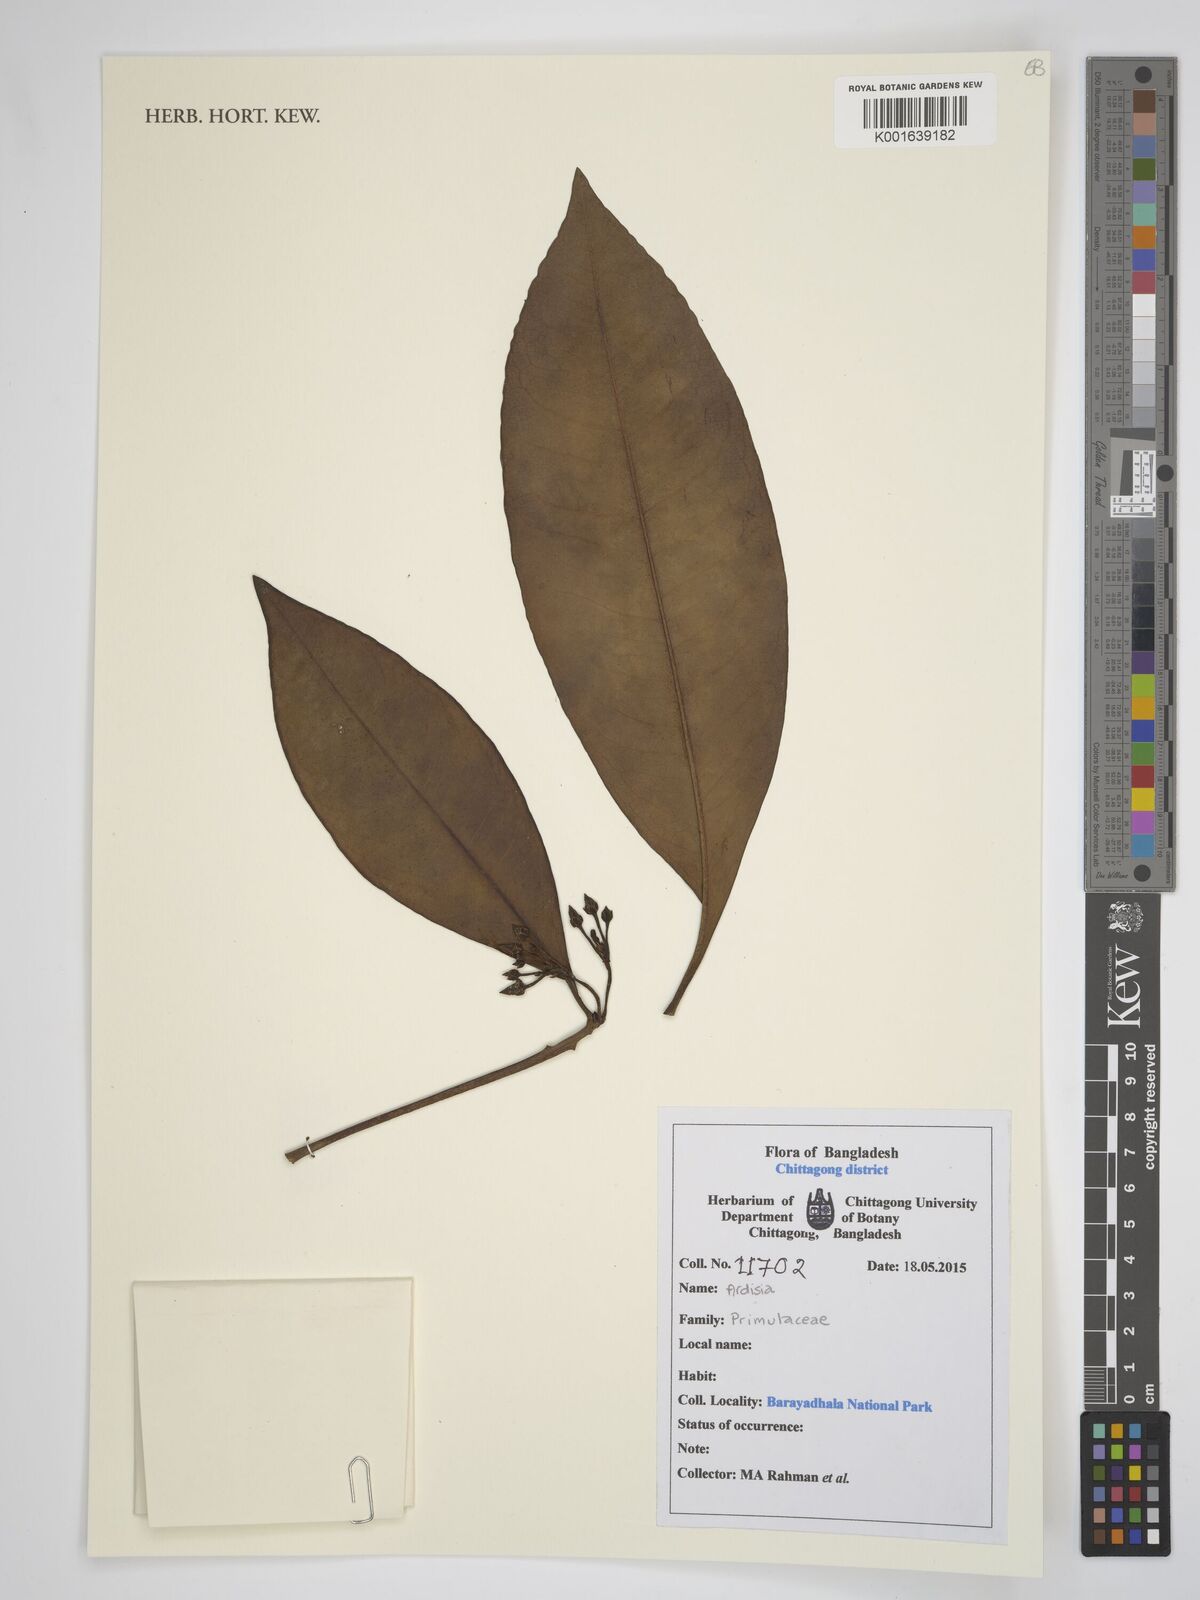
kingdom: Plantae
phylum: Tracheophyta
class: Magnoliopsida
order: Ericales
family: Primulaceae
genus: Ardisia
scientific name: Ardisia
